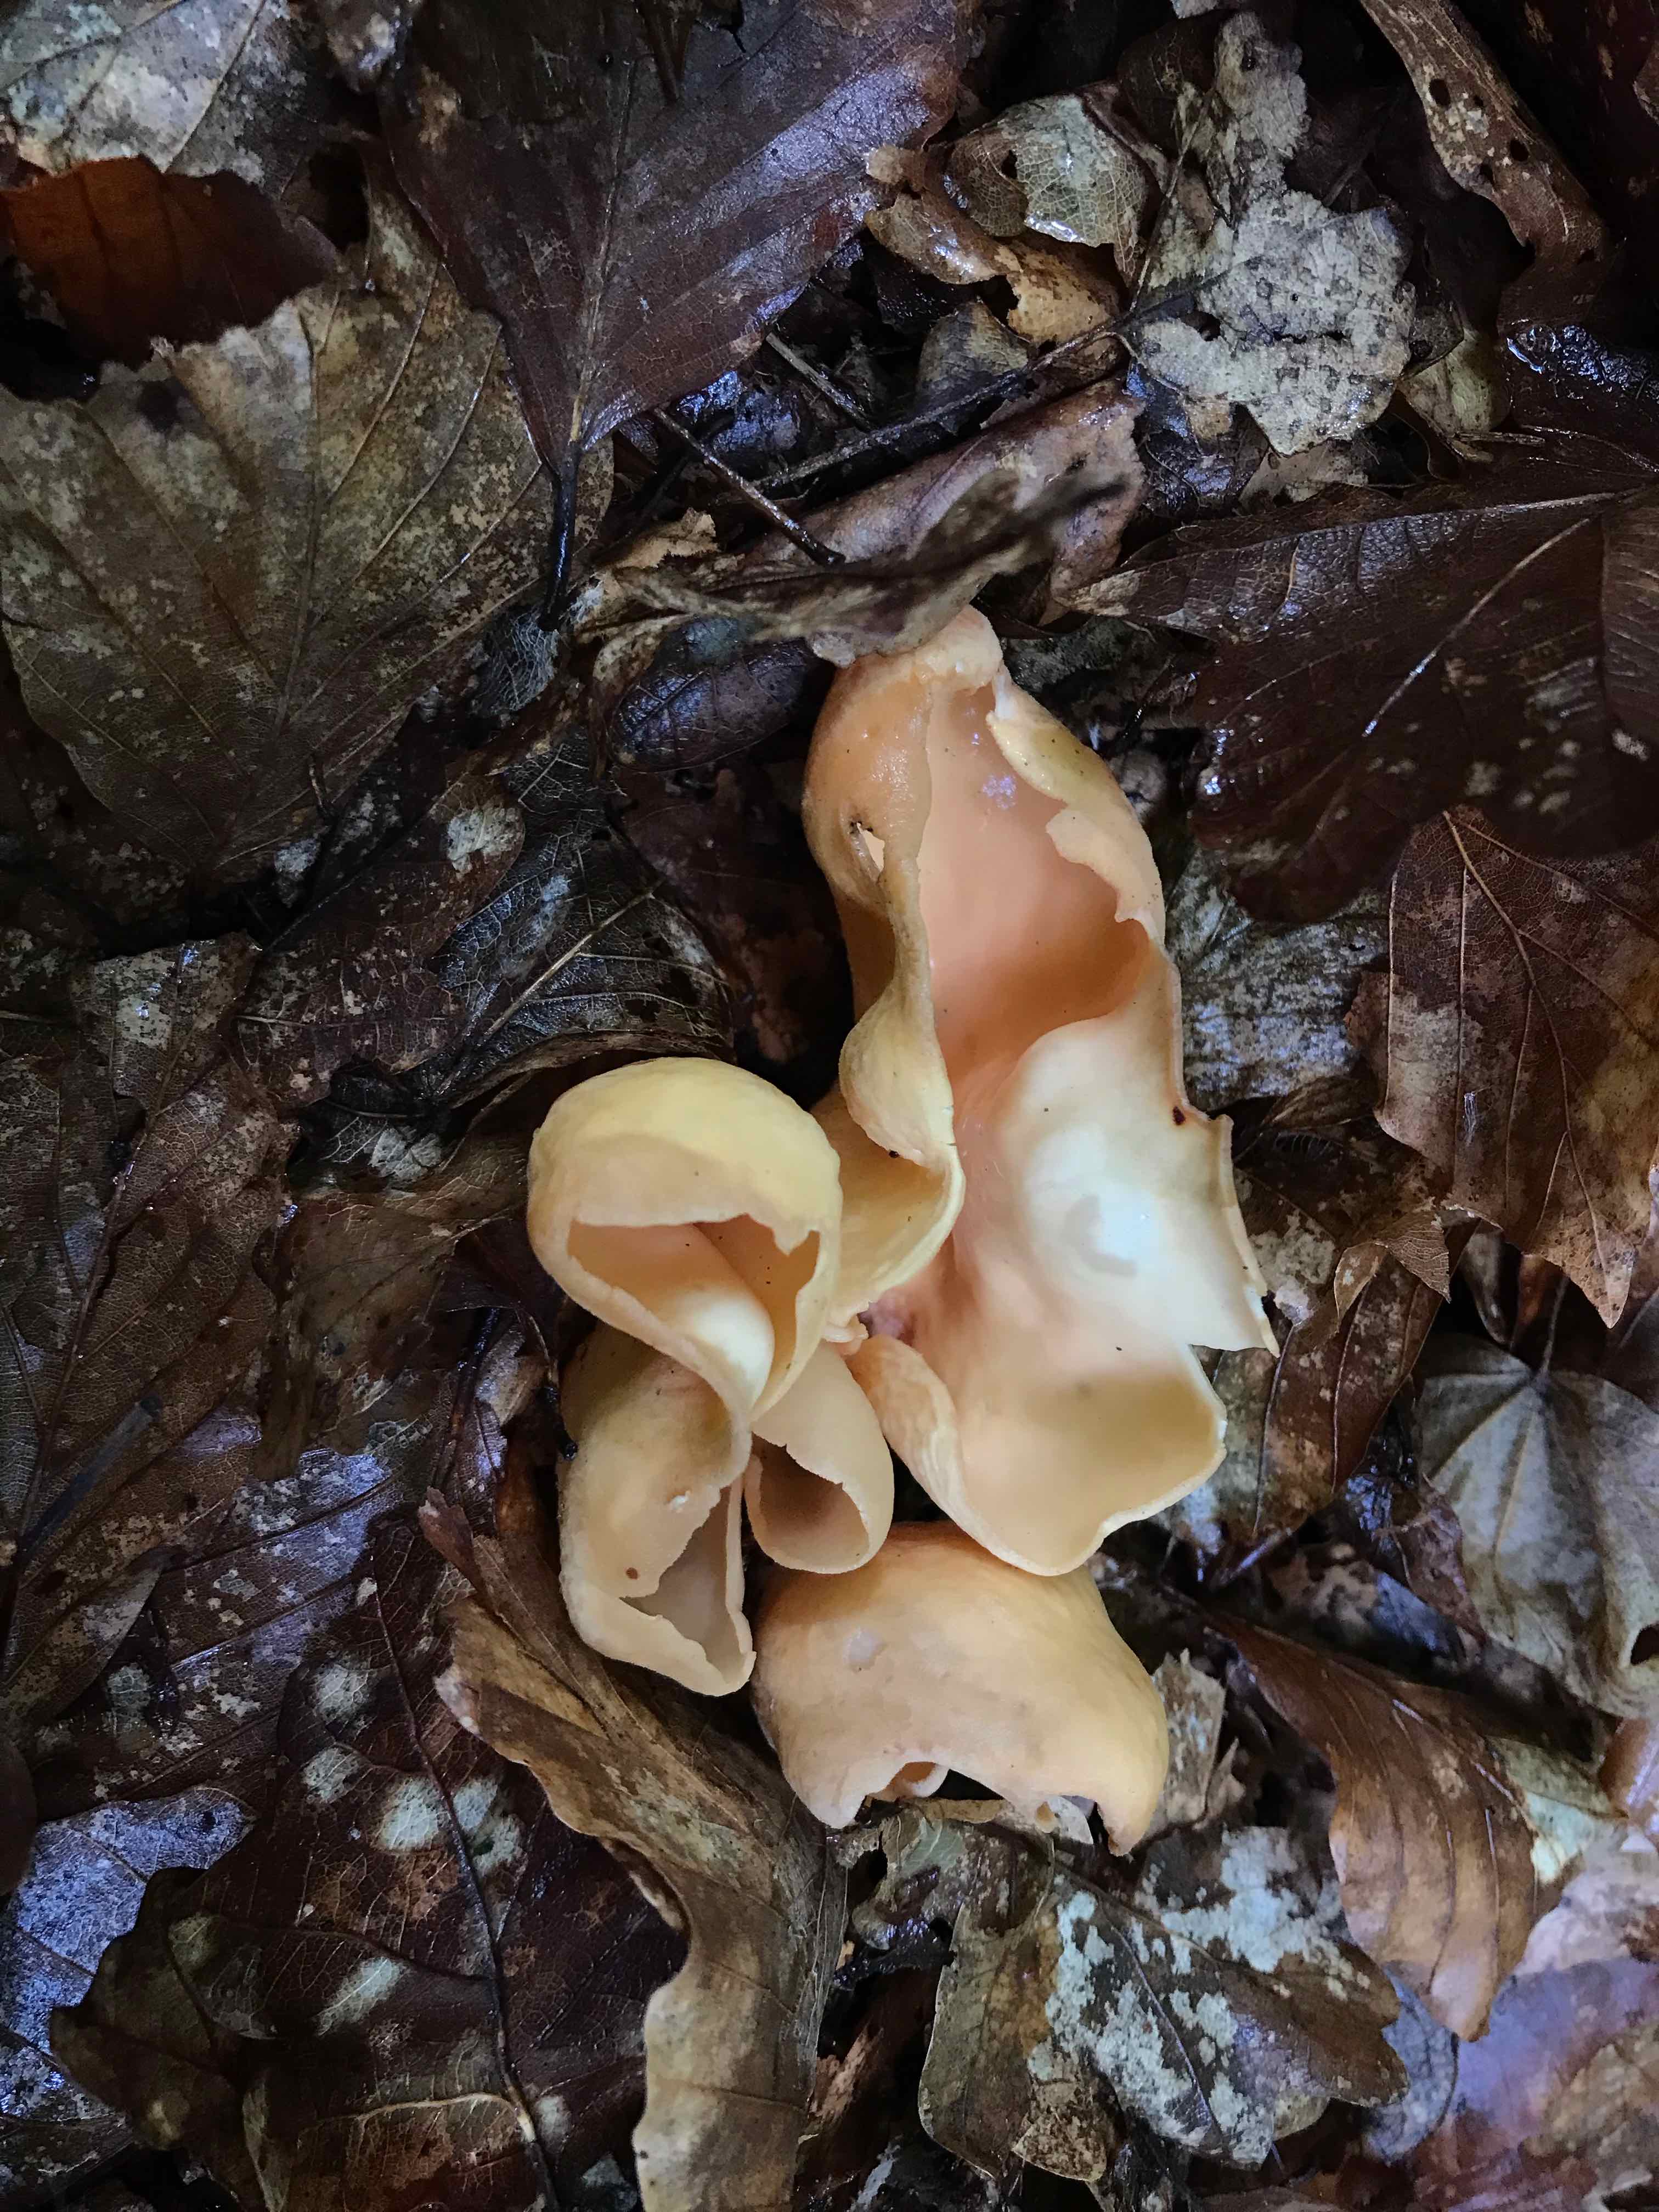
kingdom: Fungi
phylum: Ascomycota
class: Pezizomycetes
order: Pezizales
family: Otideaceae
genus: Otidea
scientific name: Otidea onotica
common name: æsel-ørebæger
